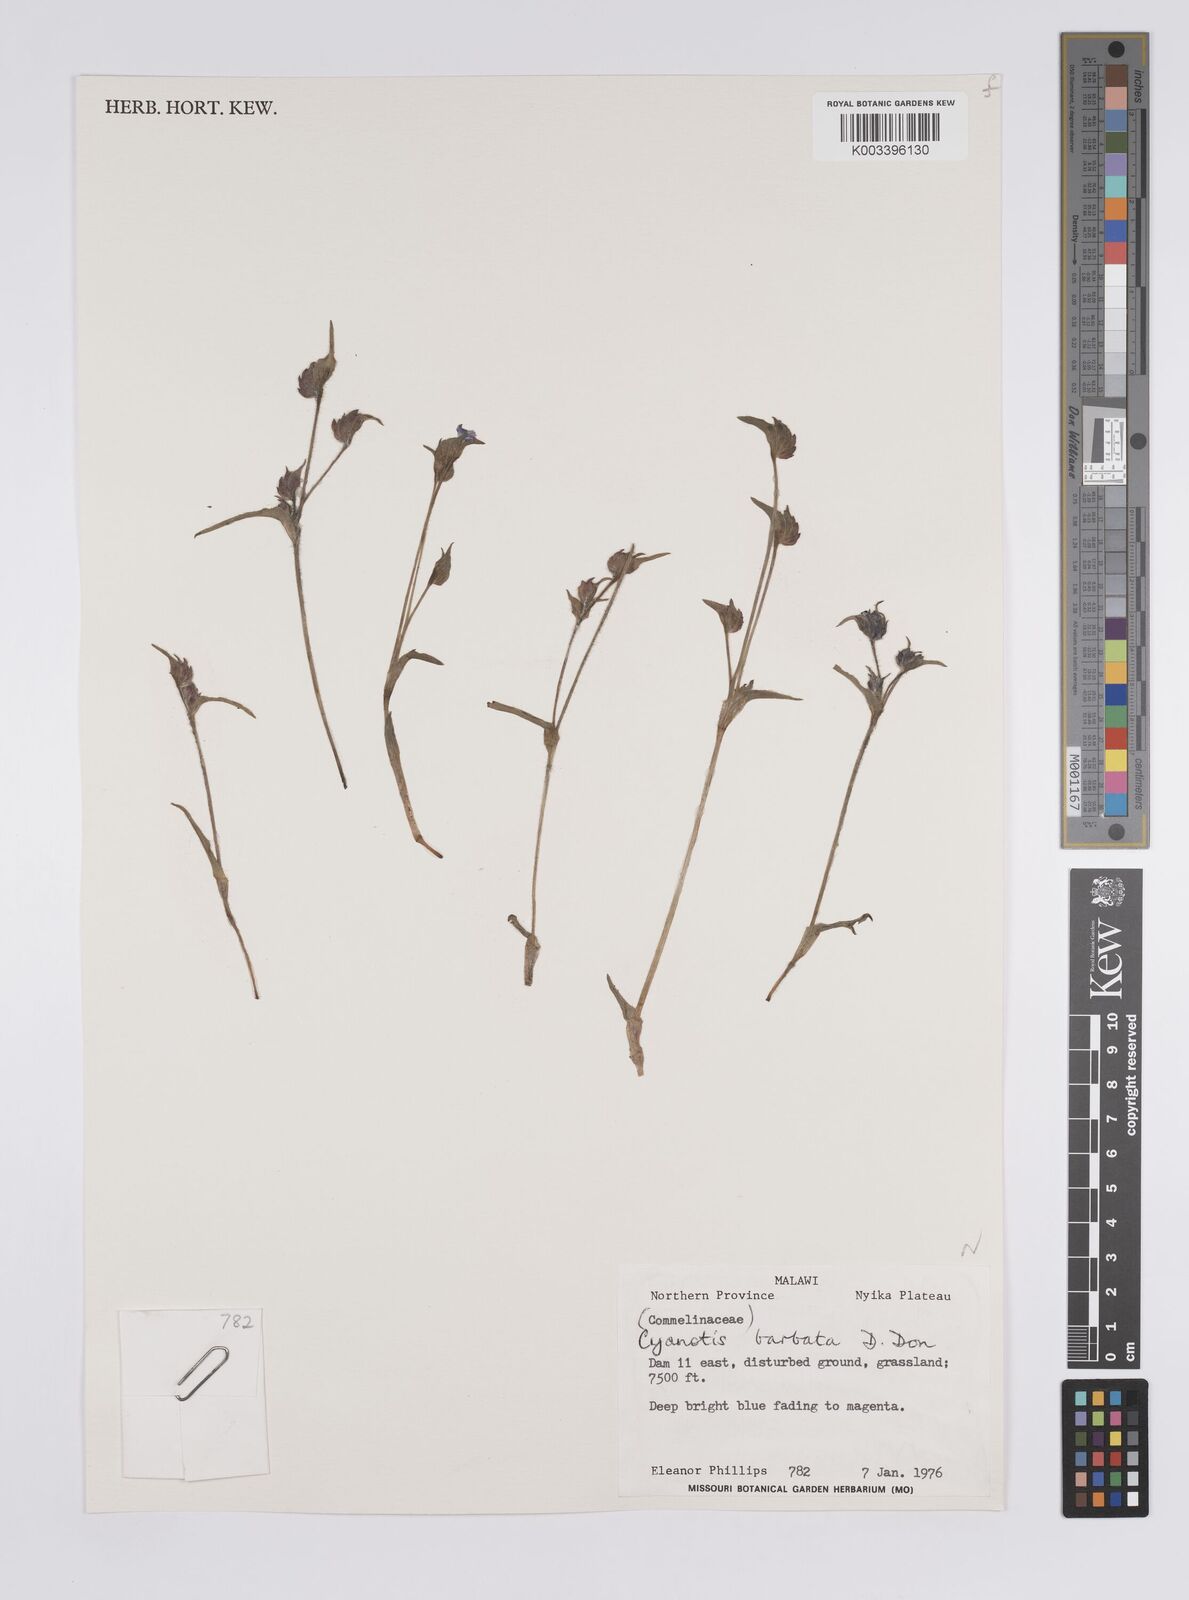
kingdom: Plantae
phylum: Tracheophyta
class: Liliopsida
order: Commelinales
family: Commelinaceae
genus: Cyanotis
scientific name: Cyanotis vaga
